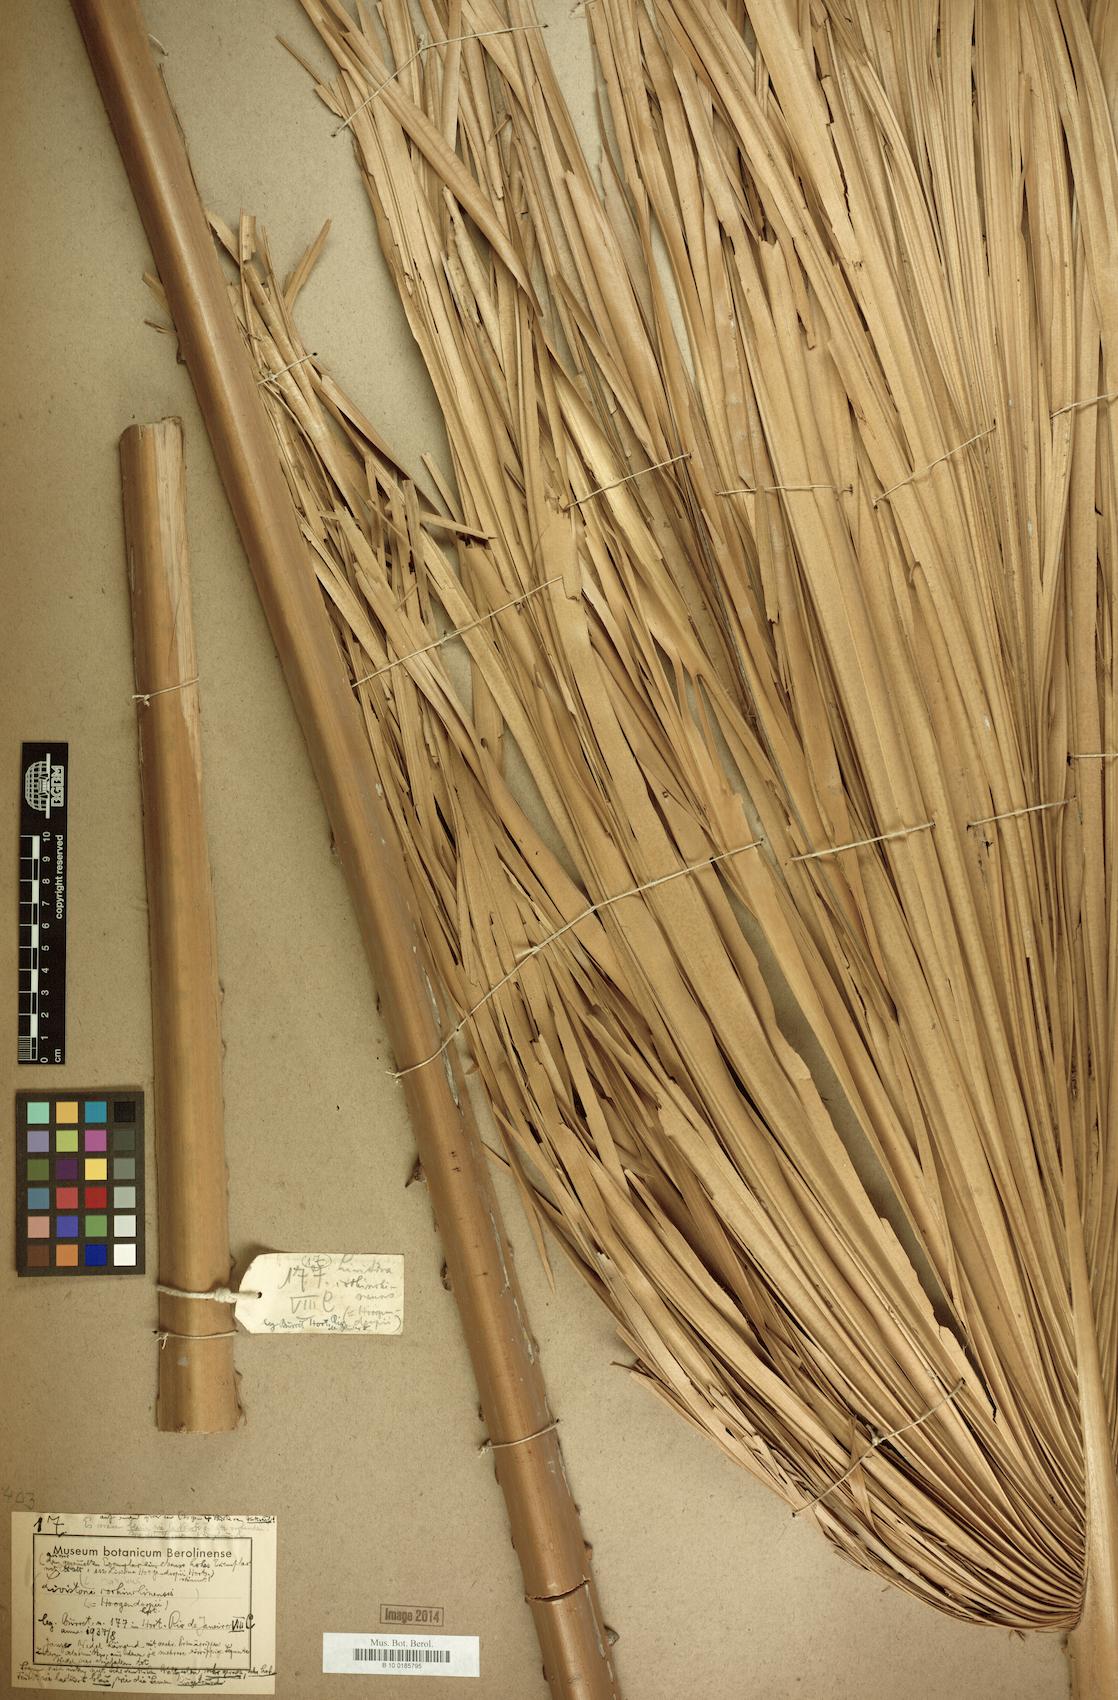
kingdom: Plantae
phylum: Tracheophyta
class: Liliopsida
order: Arecales
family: Arecaceae
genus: Livistona
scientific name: Livistona saribus
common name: Taraw palm
